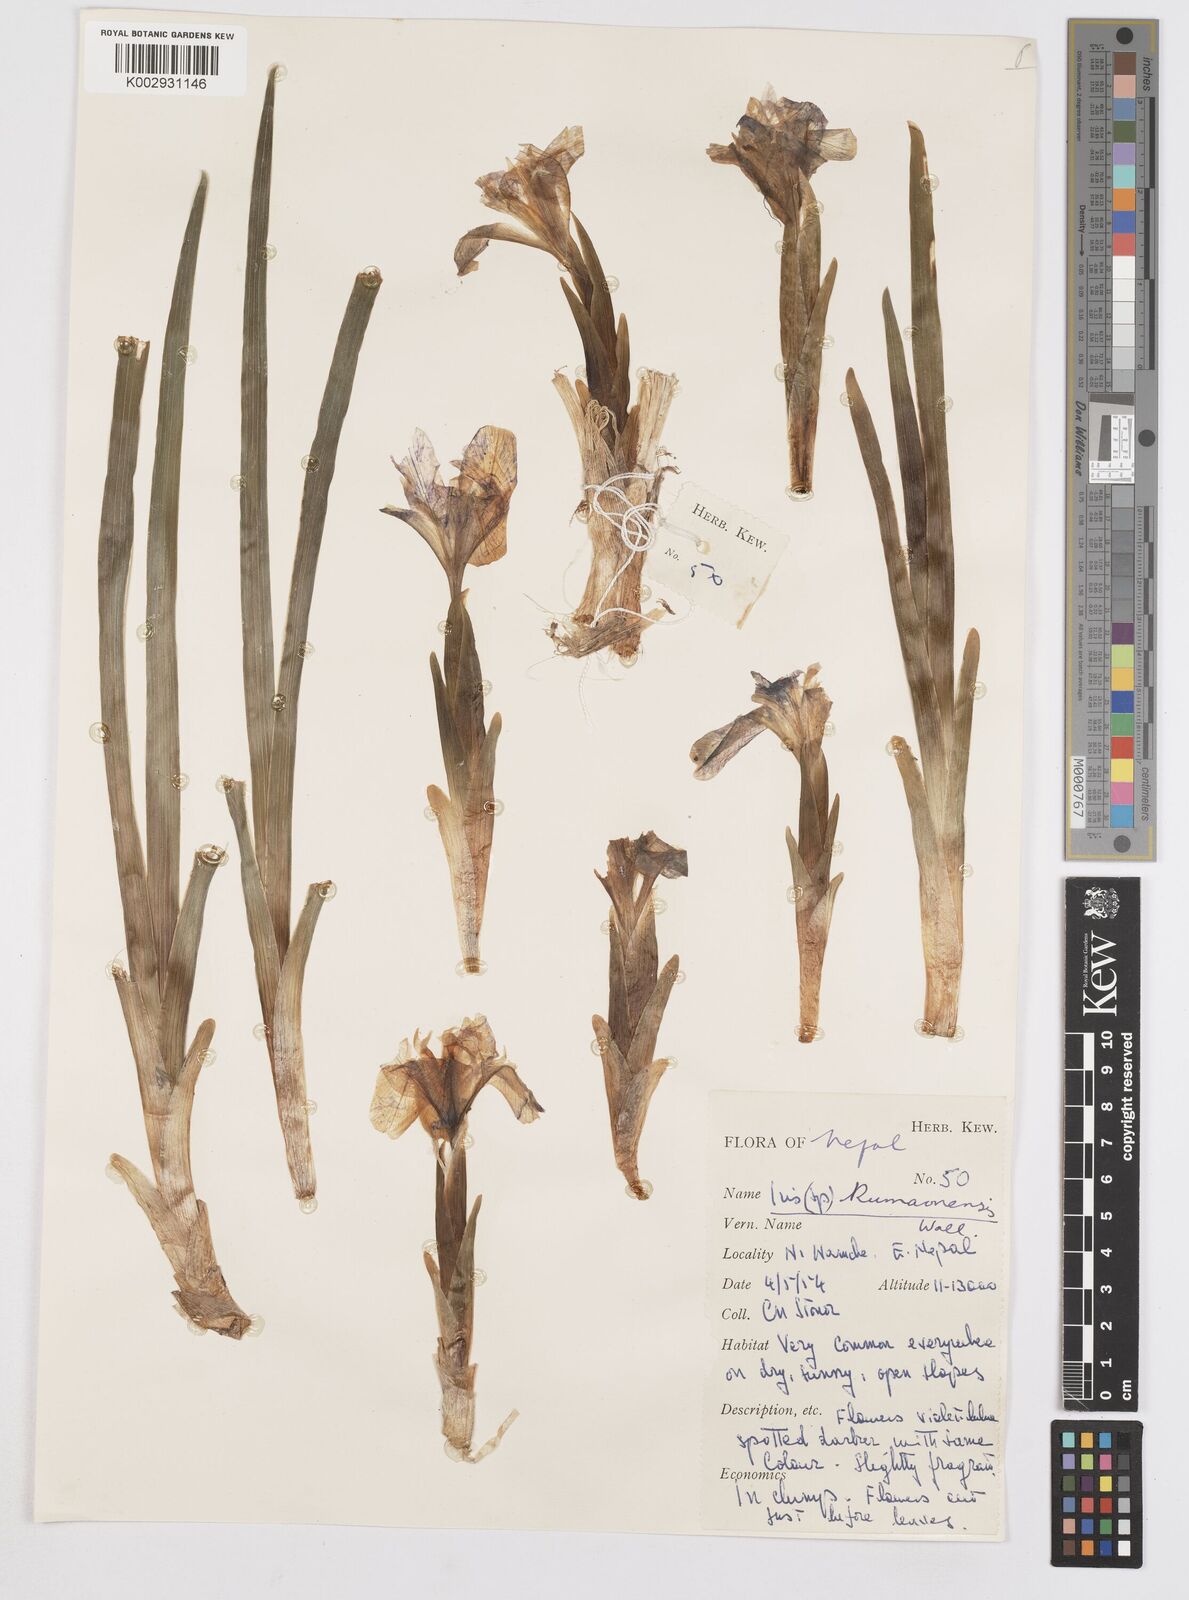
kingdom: Plantae
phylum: Tracheophyta
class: Liliopsida
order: Asparagales
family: Iridaceae
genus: Iris
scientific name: Iris kemaonensis
